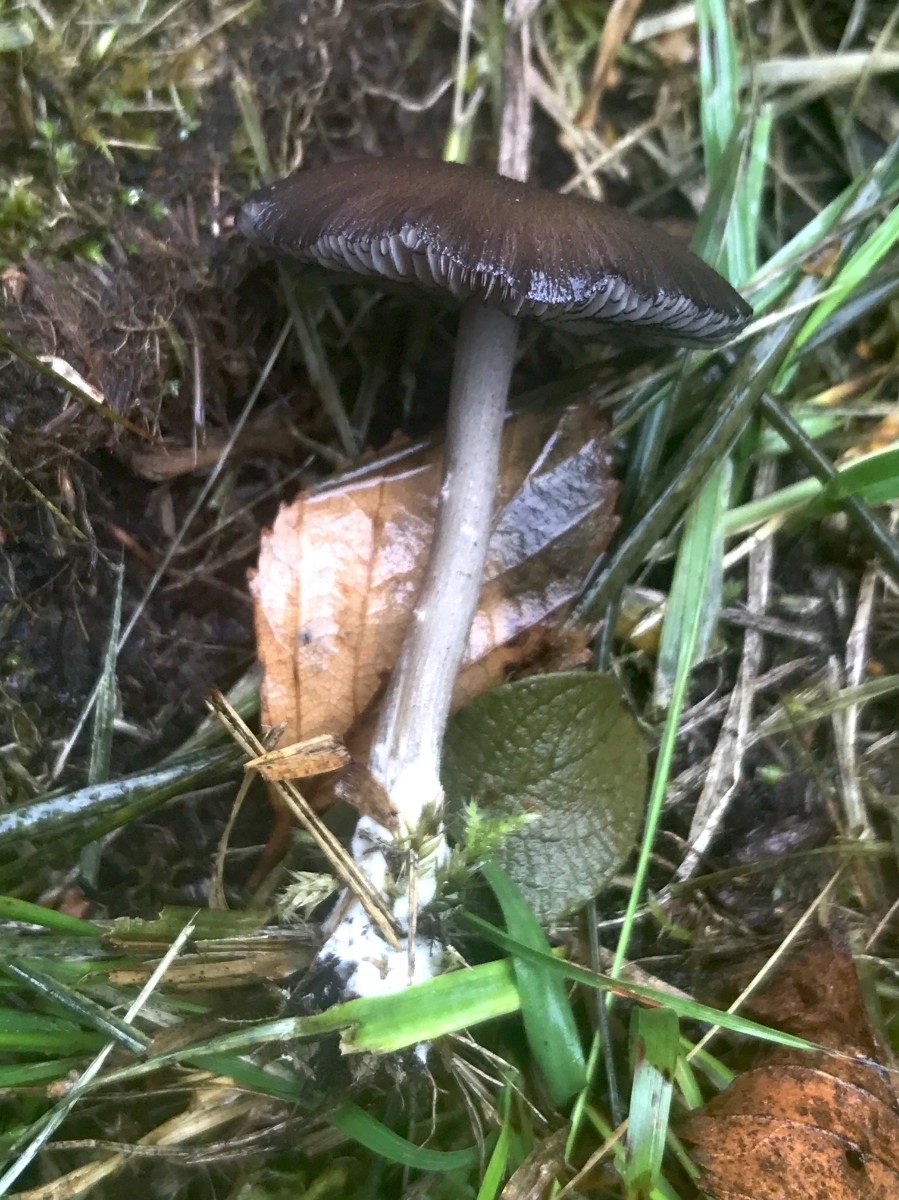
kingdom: Fungi
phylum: Basidiomycota
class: Agaricomycetes
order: Agaricales
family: Entolomataceae
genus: Entoloma
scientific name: Entoloma
